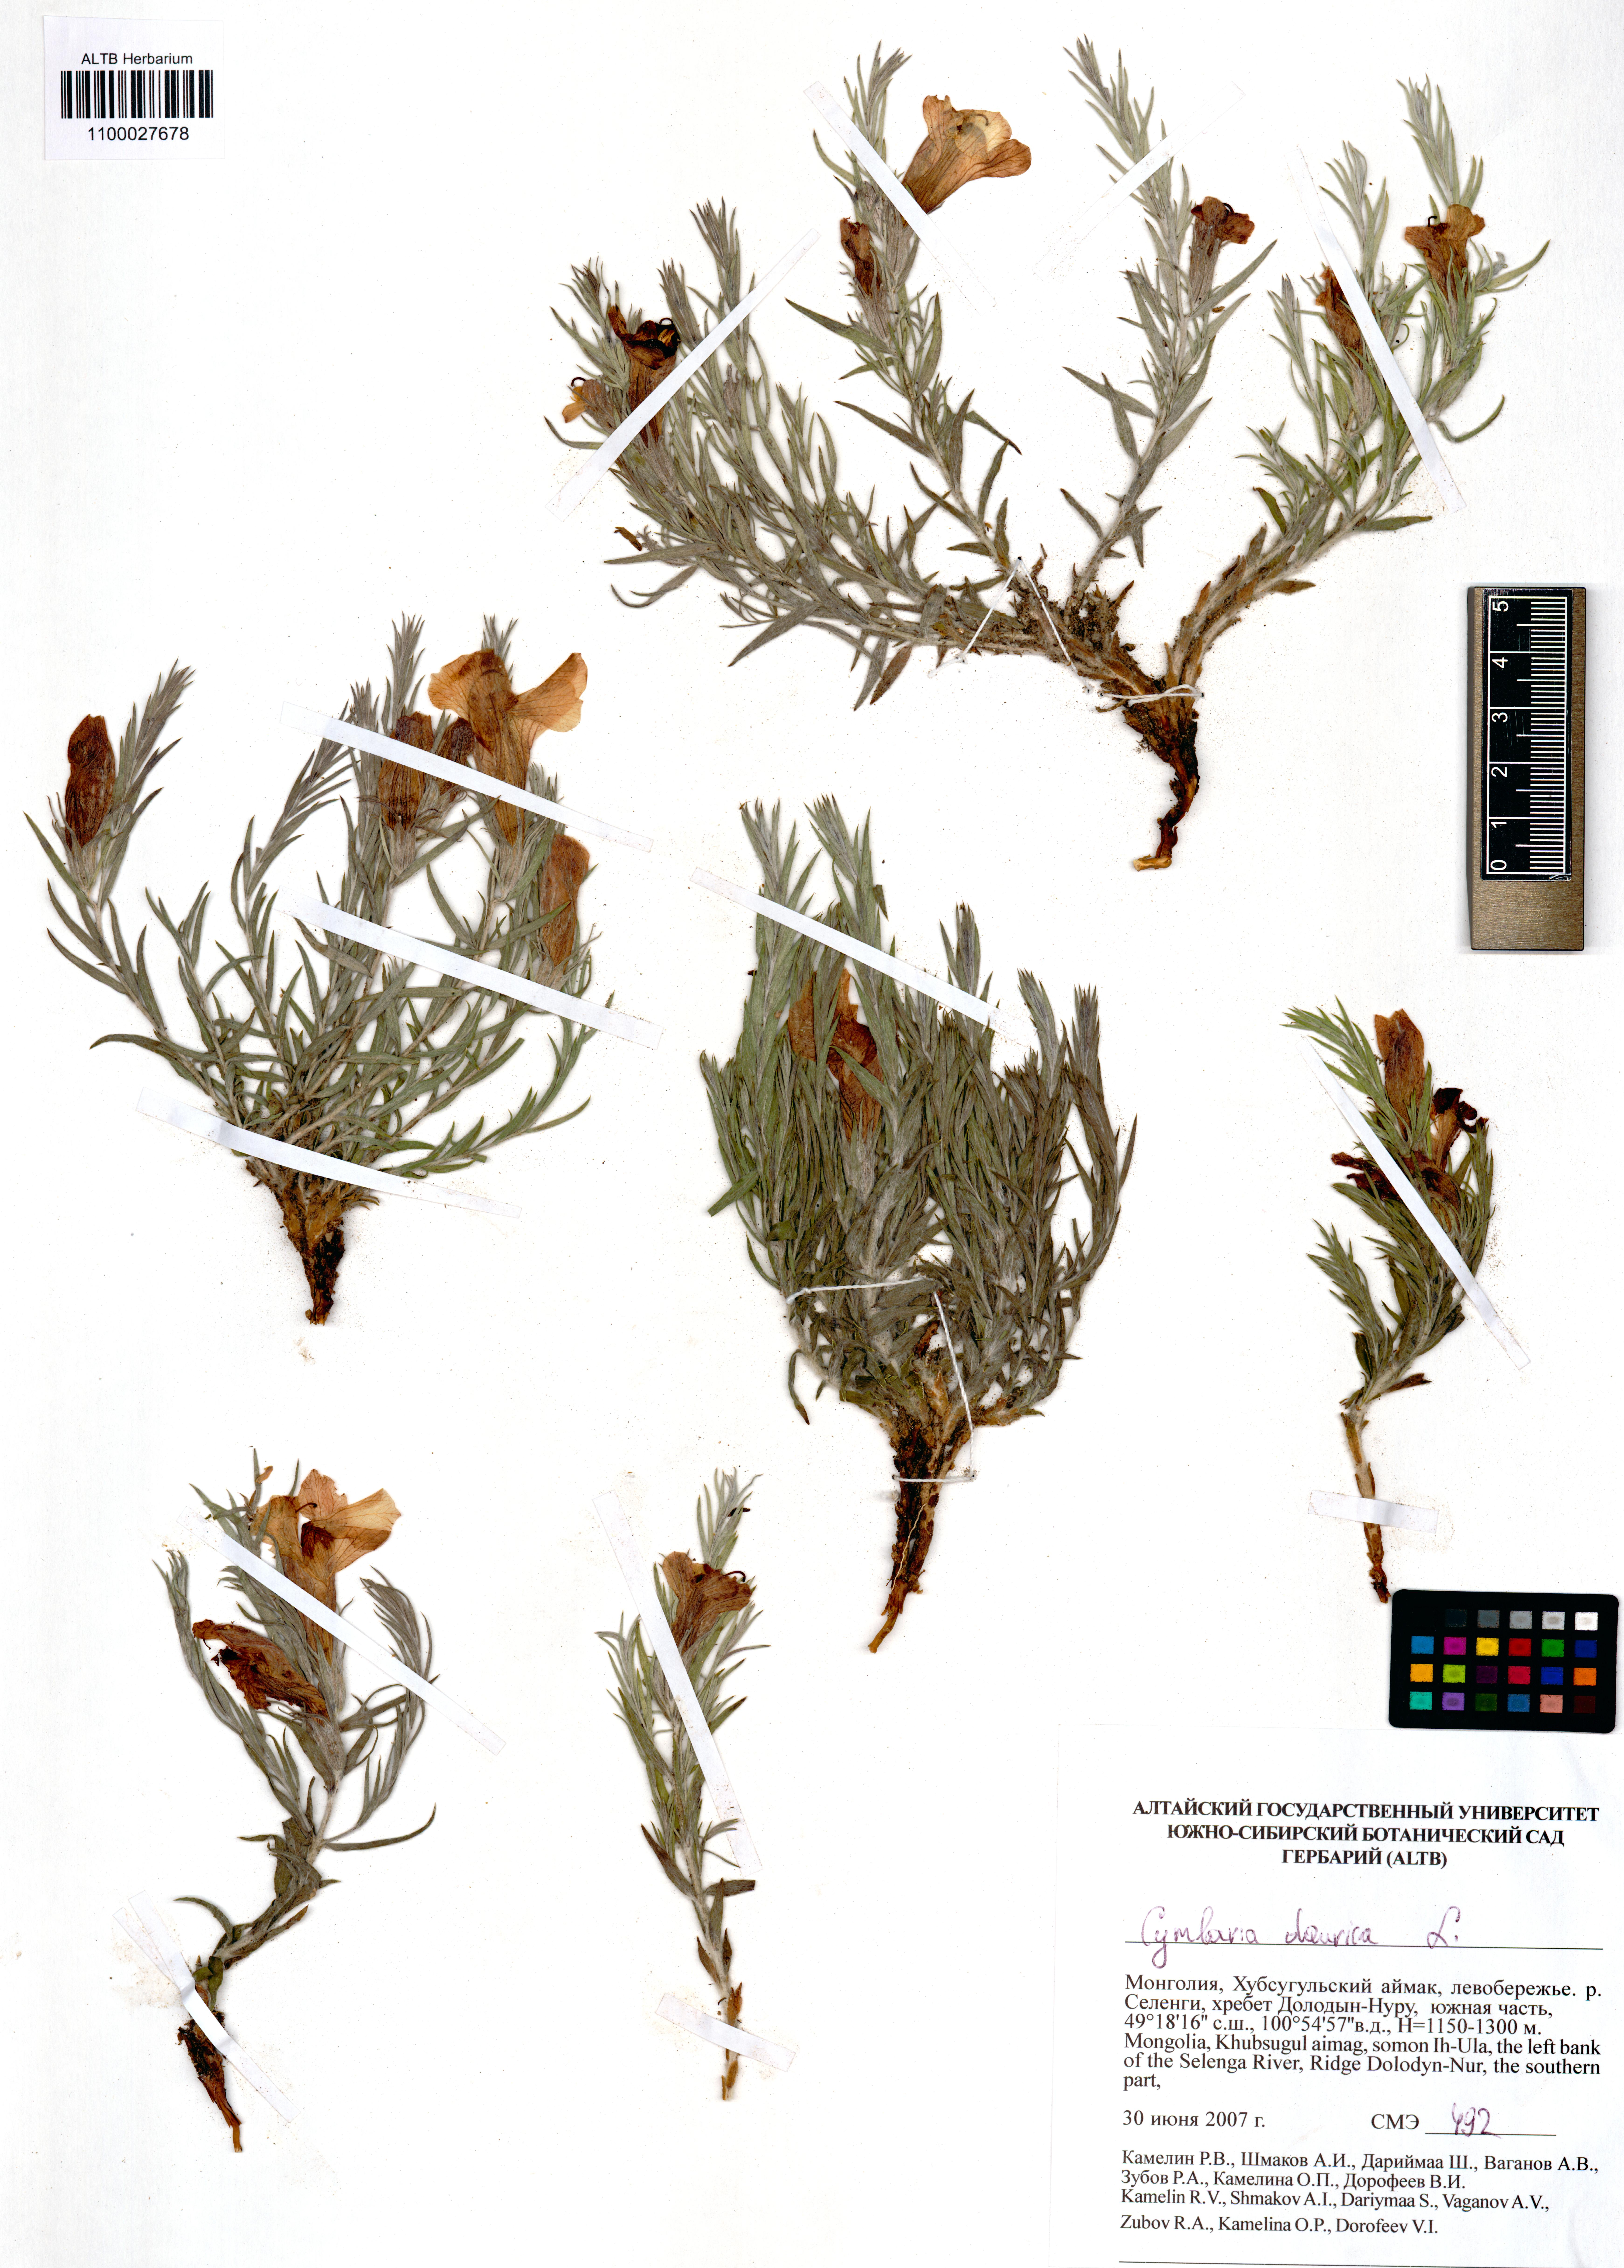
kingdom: Plantae
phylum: Tracheophyta
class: Magnoliopsida
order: Lamiales
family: Orobanchaceae
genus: Cymbaria
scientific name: Cymbaria daurica
